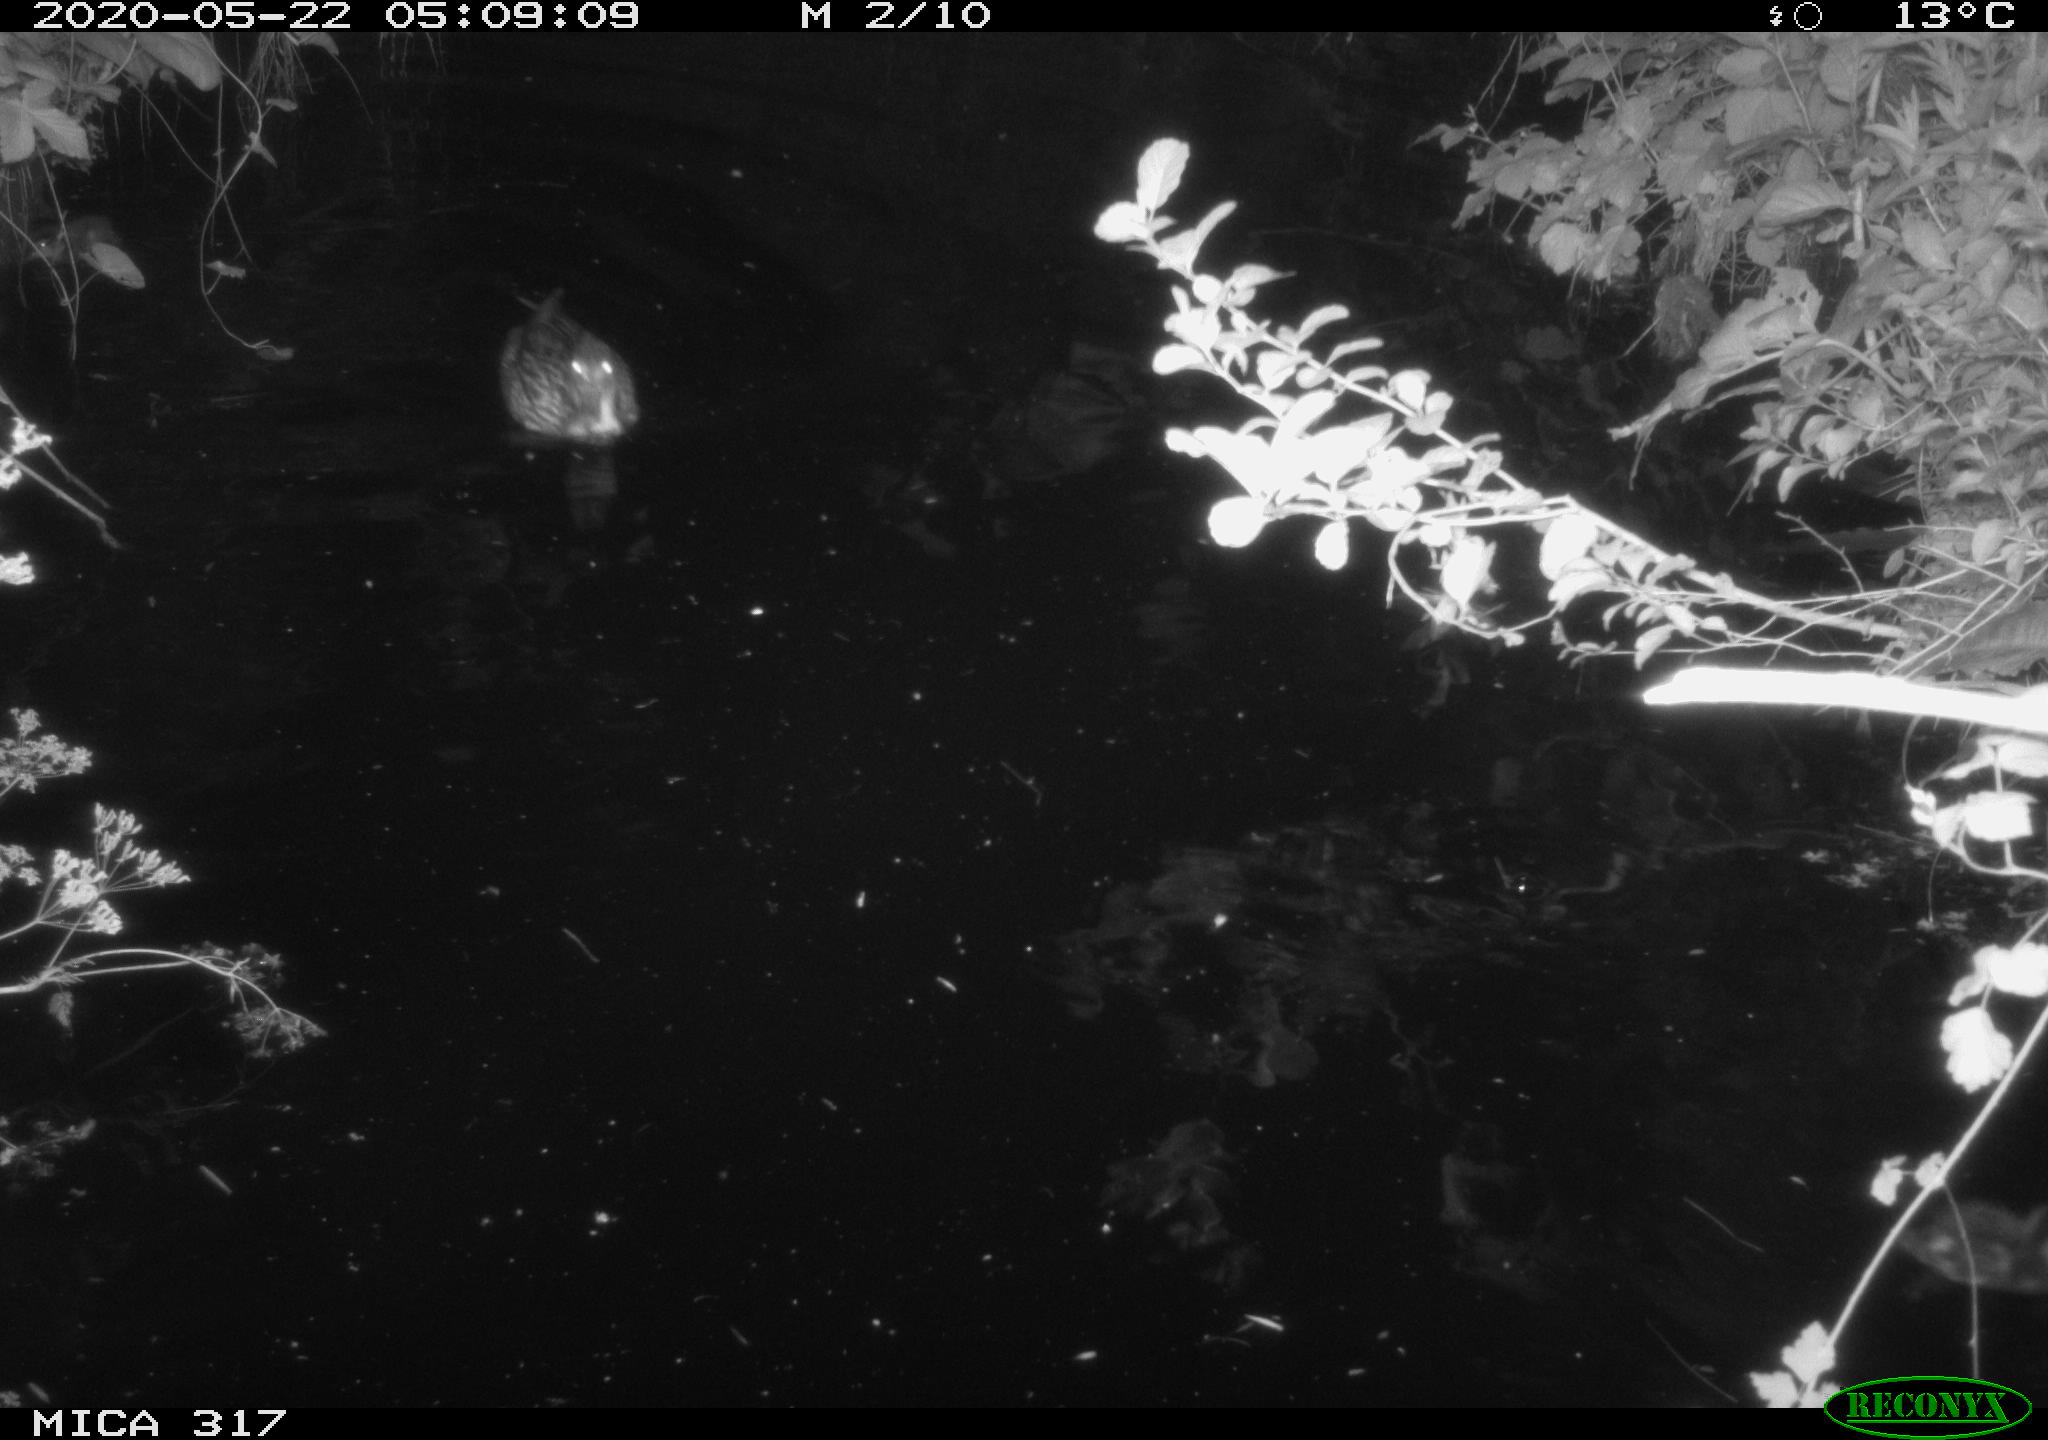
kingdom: Animalia
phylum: Chordata
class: Aves
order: Anseriformes
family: Anatidae
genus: Anas
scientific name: Anas platyrhynchos
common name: Mallard
